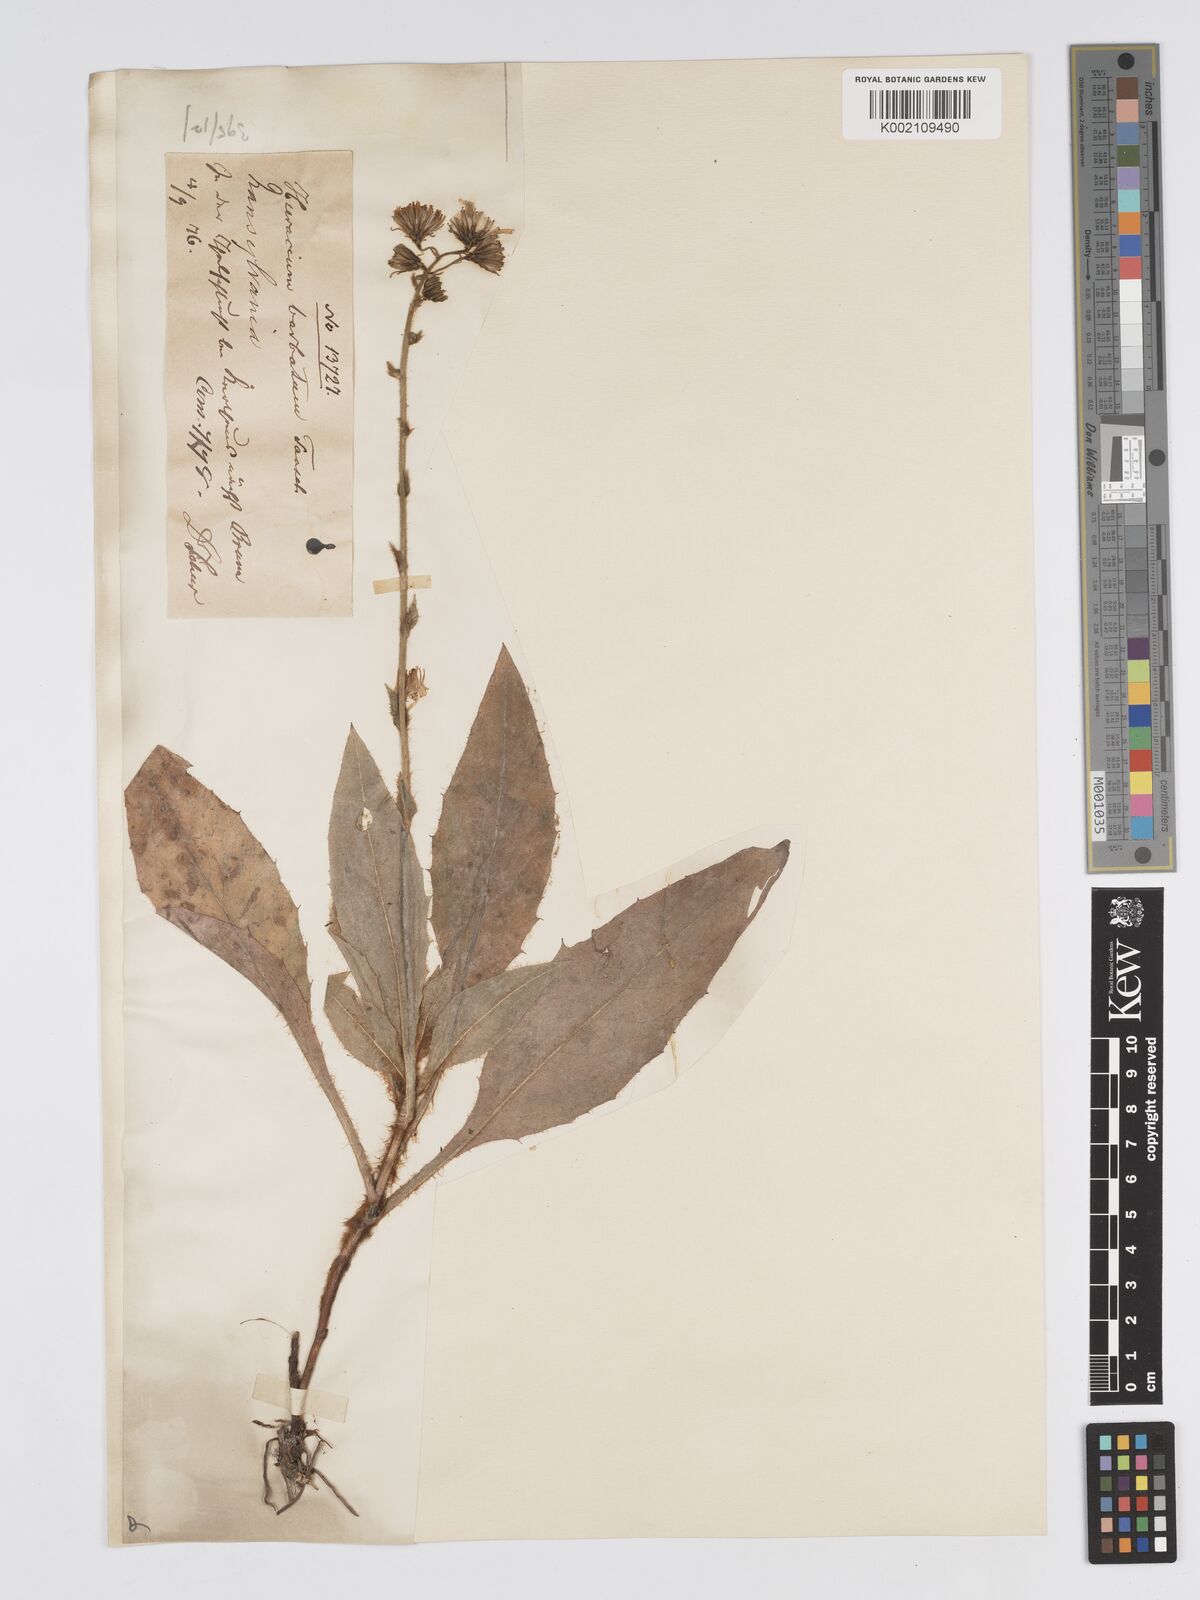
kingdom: Plantae
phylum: Tracheophyta
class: Magnoliopsida
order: Asterales
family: Asteraceae
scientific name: Asteraceae
